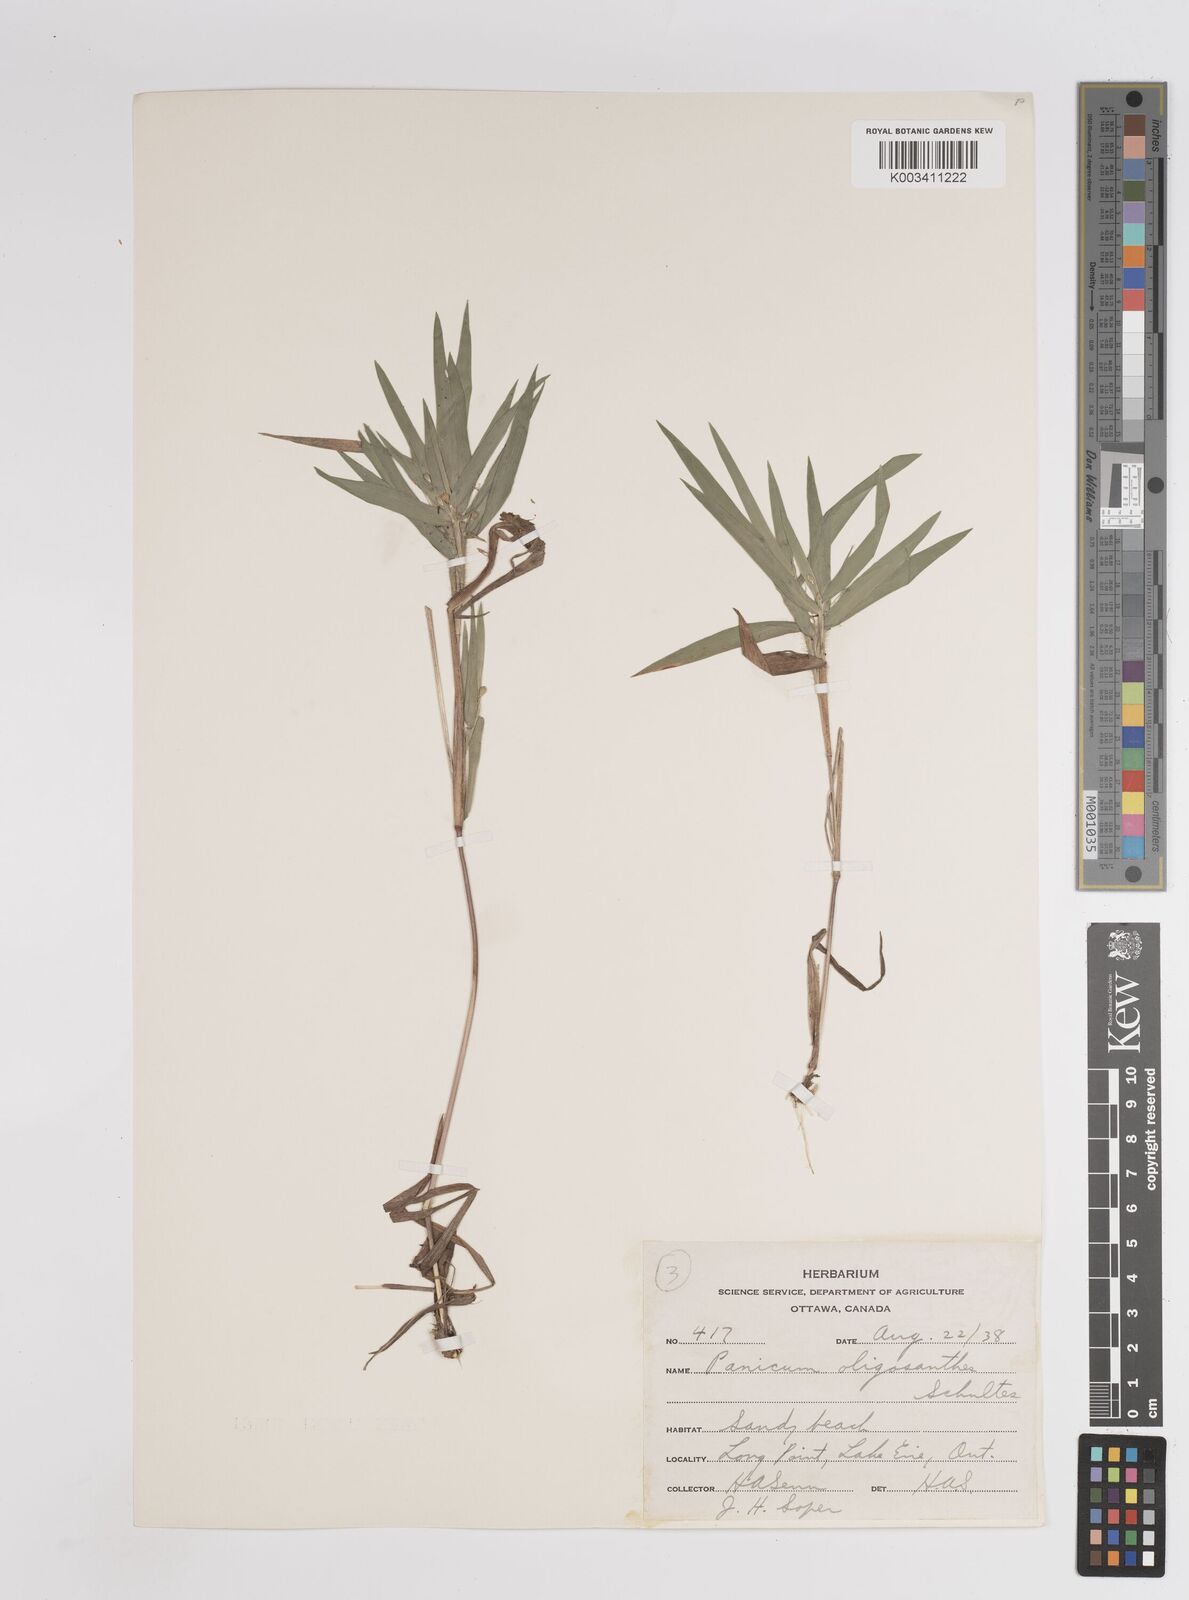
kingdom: Plantae
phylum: Tracheophyta
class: Liliopsida
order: Poales
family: Poaceae
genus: Dichanthelium
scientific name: Dichanthelium oligosanthes
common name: Few-anther obscuregrass
